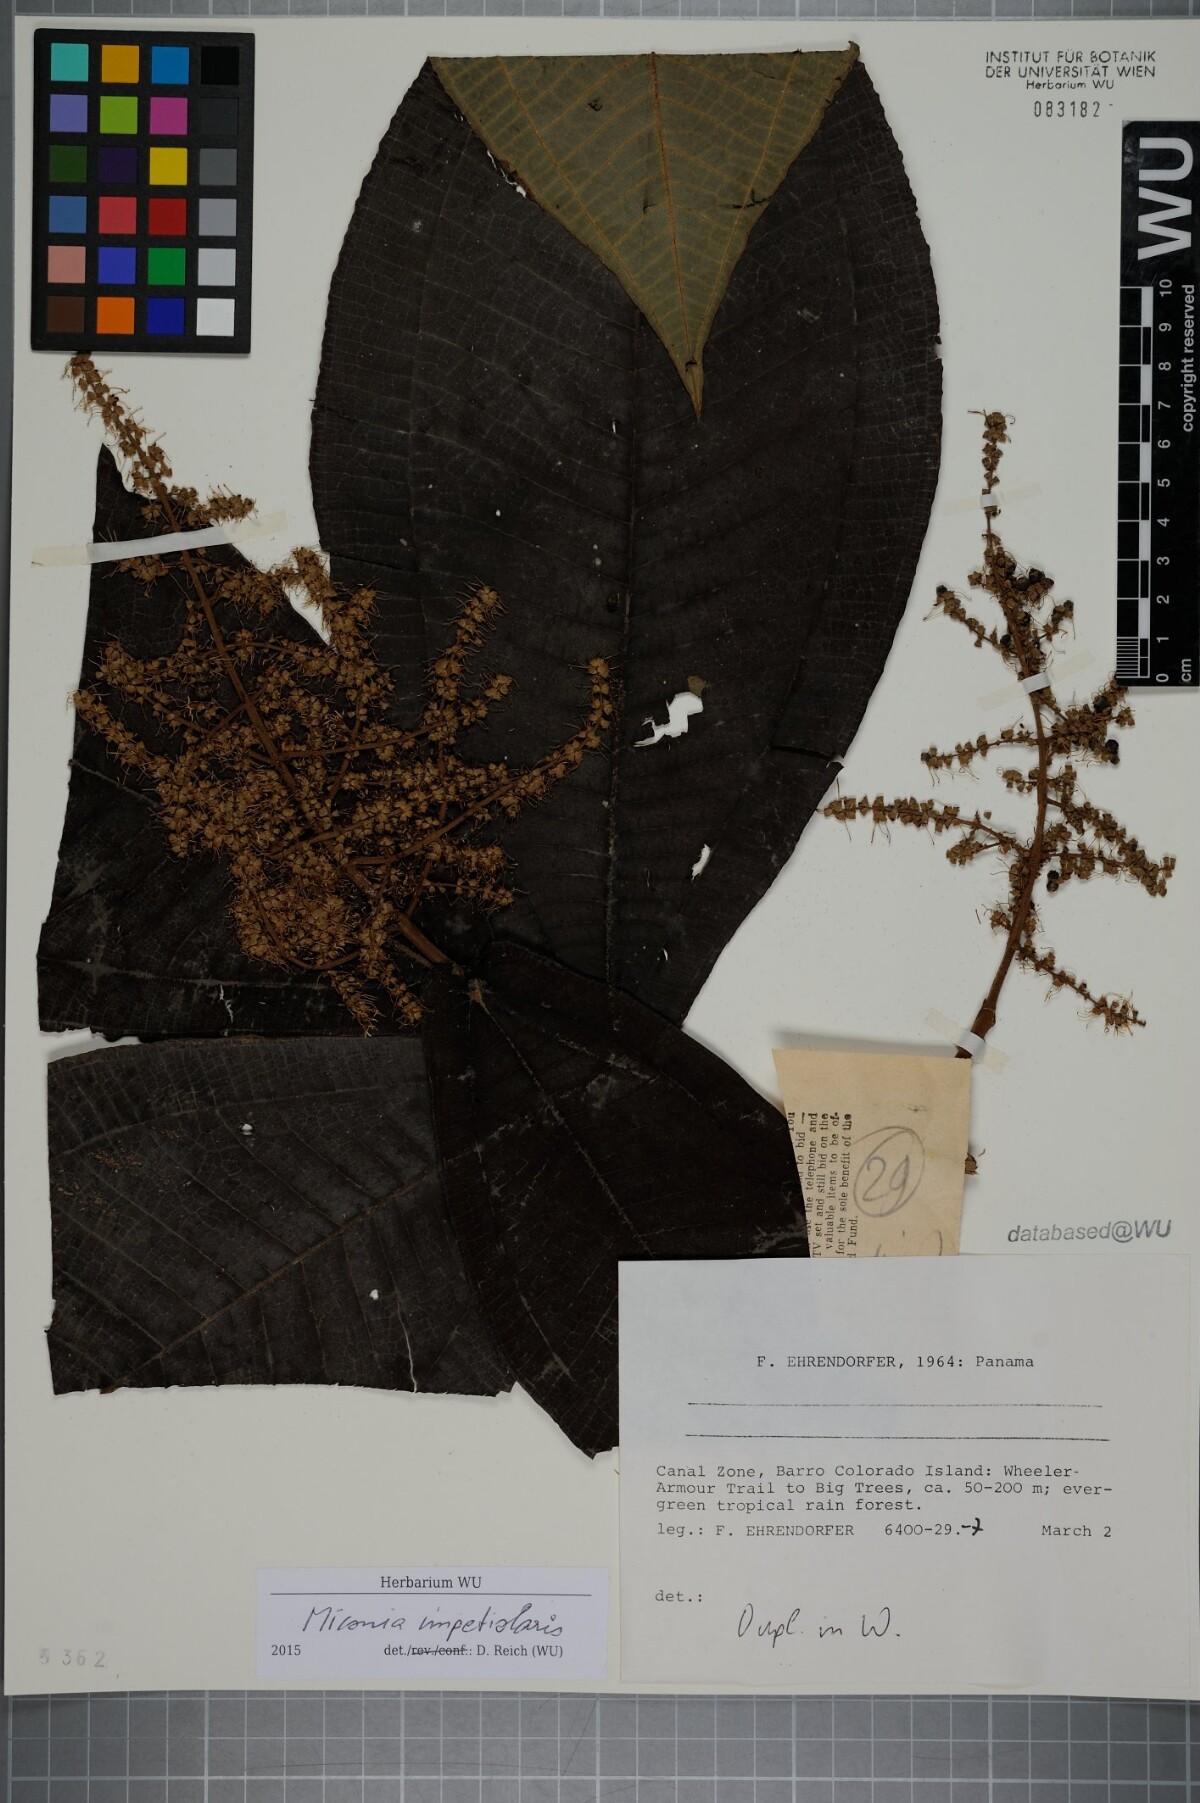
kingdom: Plantae
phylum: Tracheophyta
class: Magnoliopsida
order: Myrtales
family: Melastomataceae
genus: Miconia
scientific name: Miconia impetiolaris
